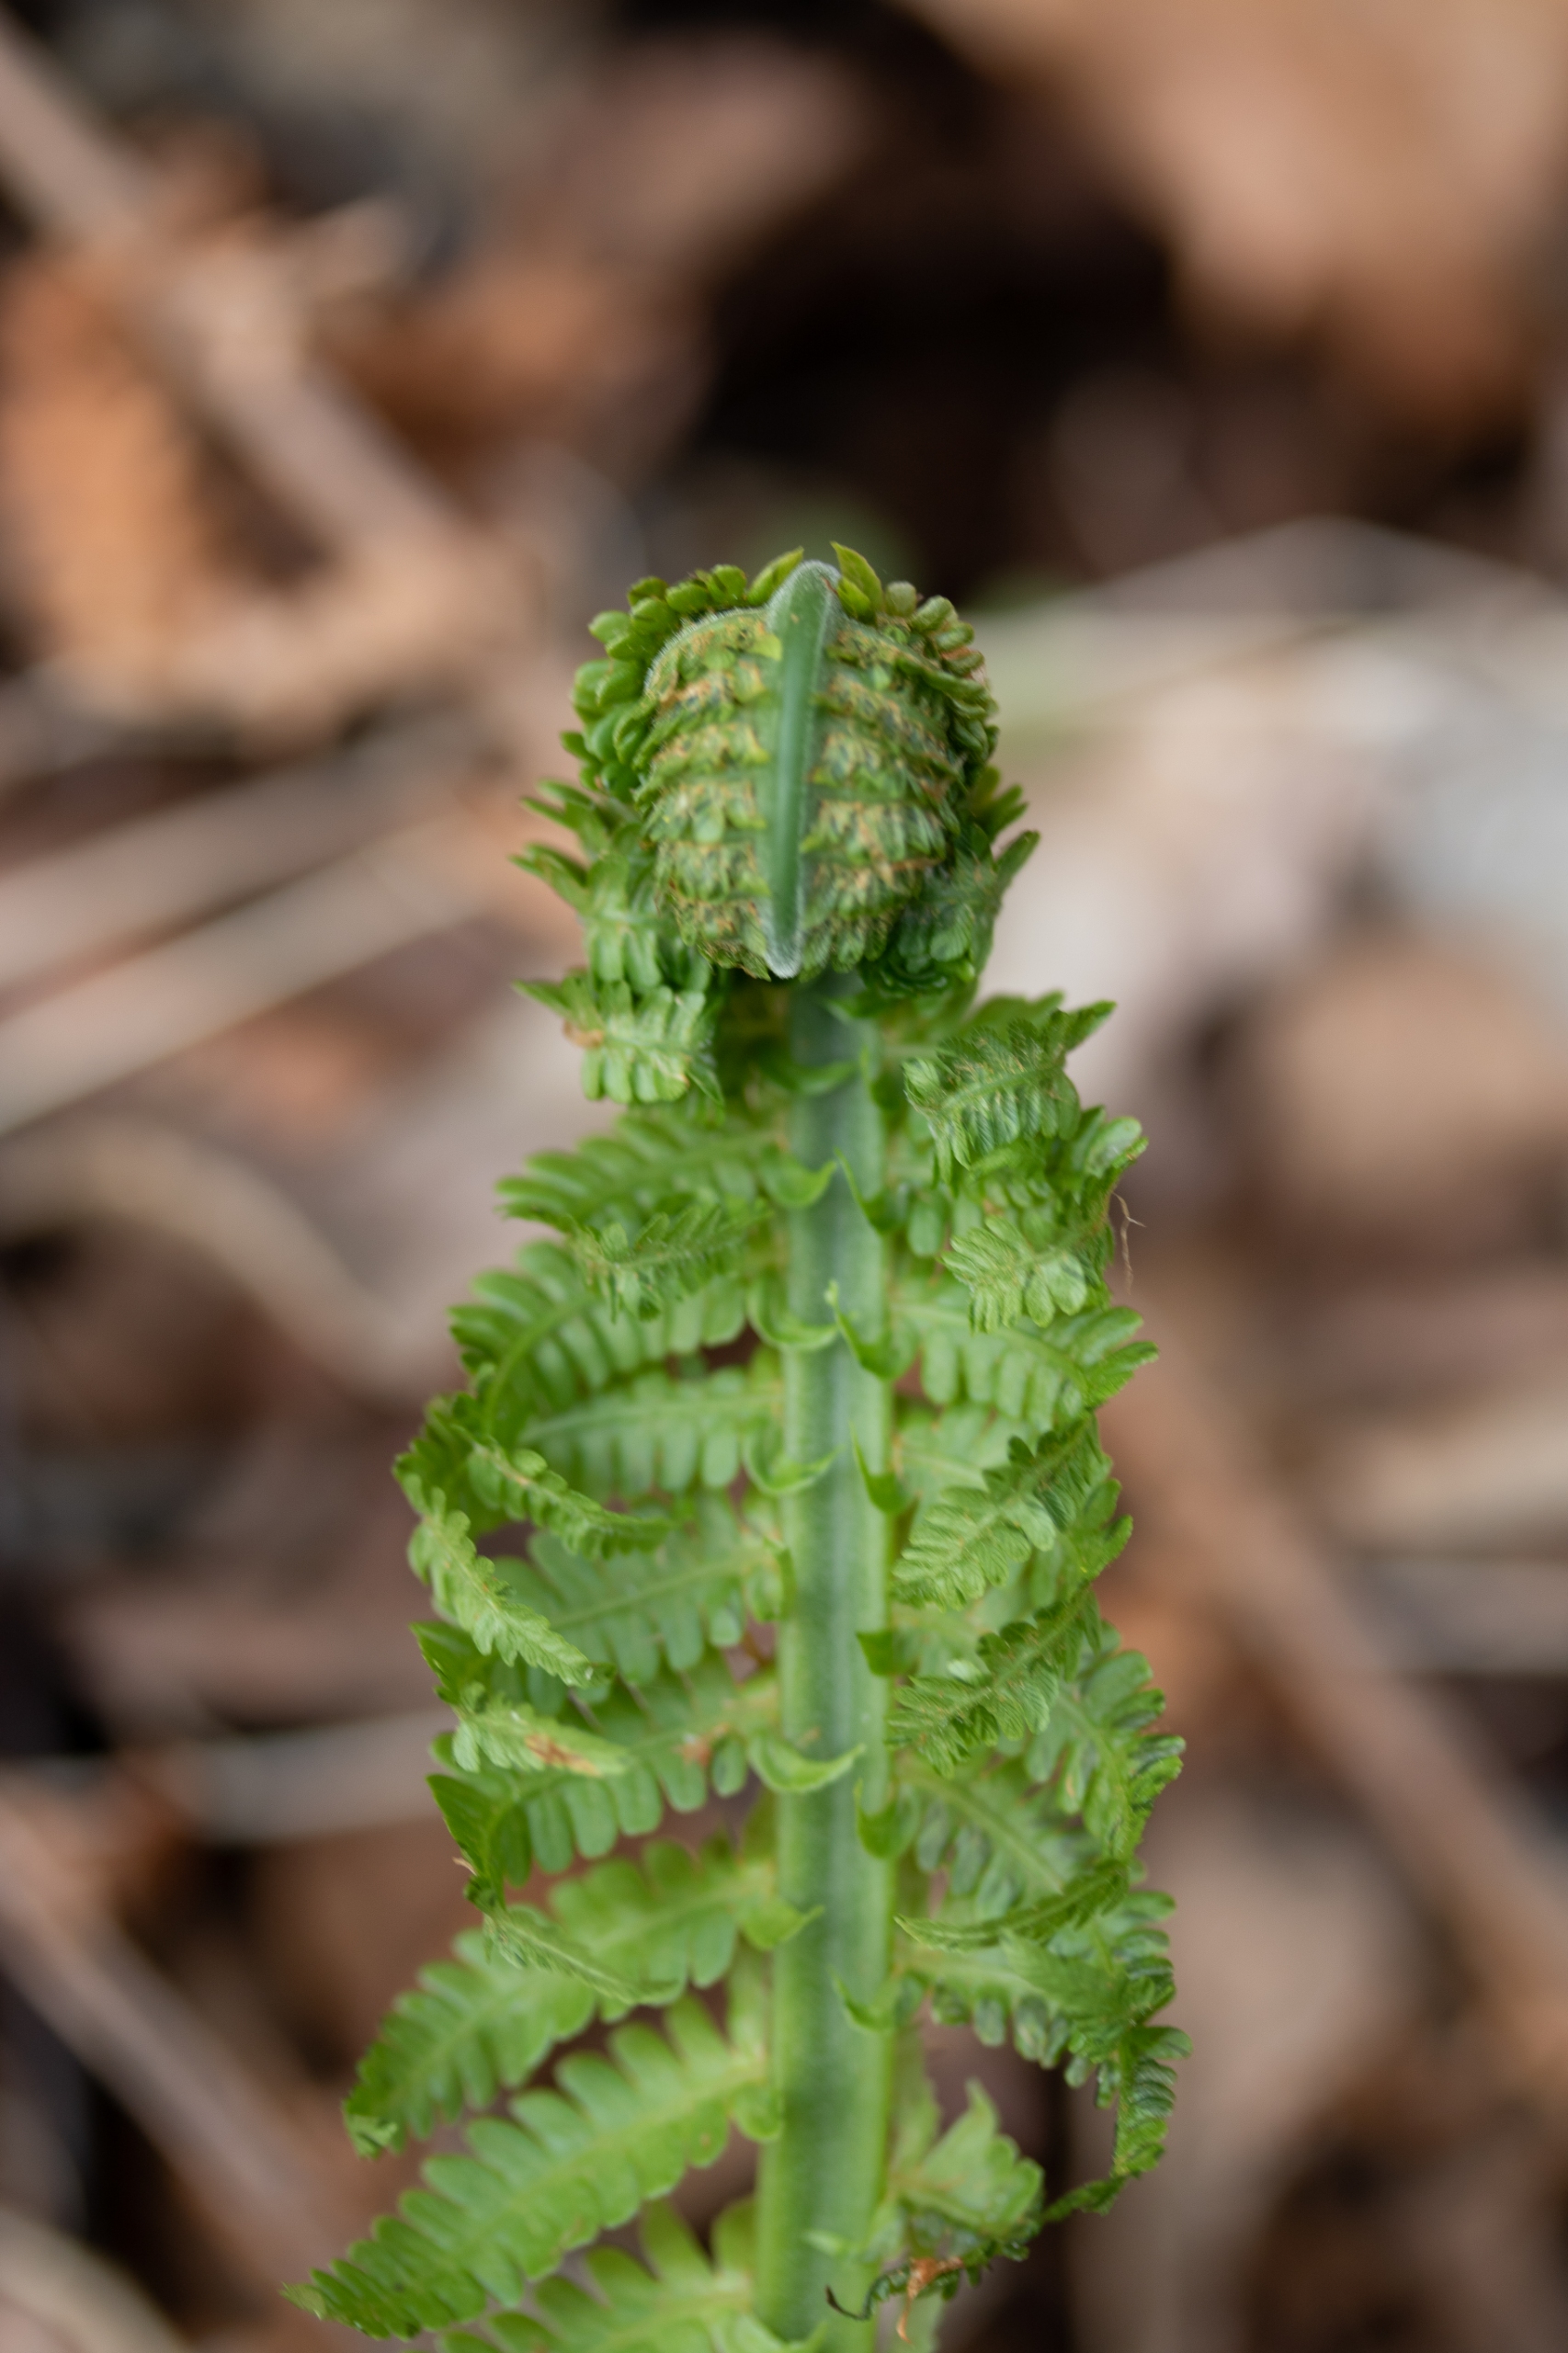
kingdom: Plantae
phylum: Tracheophyta
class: Polypodiopsida
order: Polypodiales
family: Onocleaceae
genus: Matteuccia
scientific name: Matteuccia struthiopteris
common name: Strudsvinge
